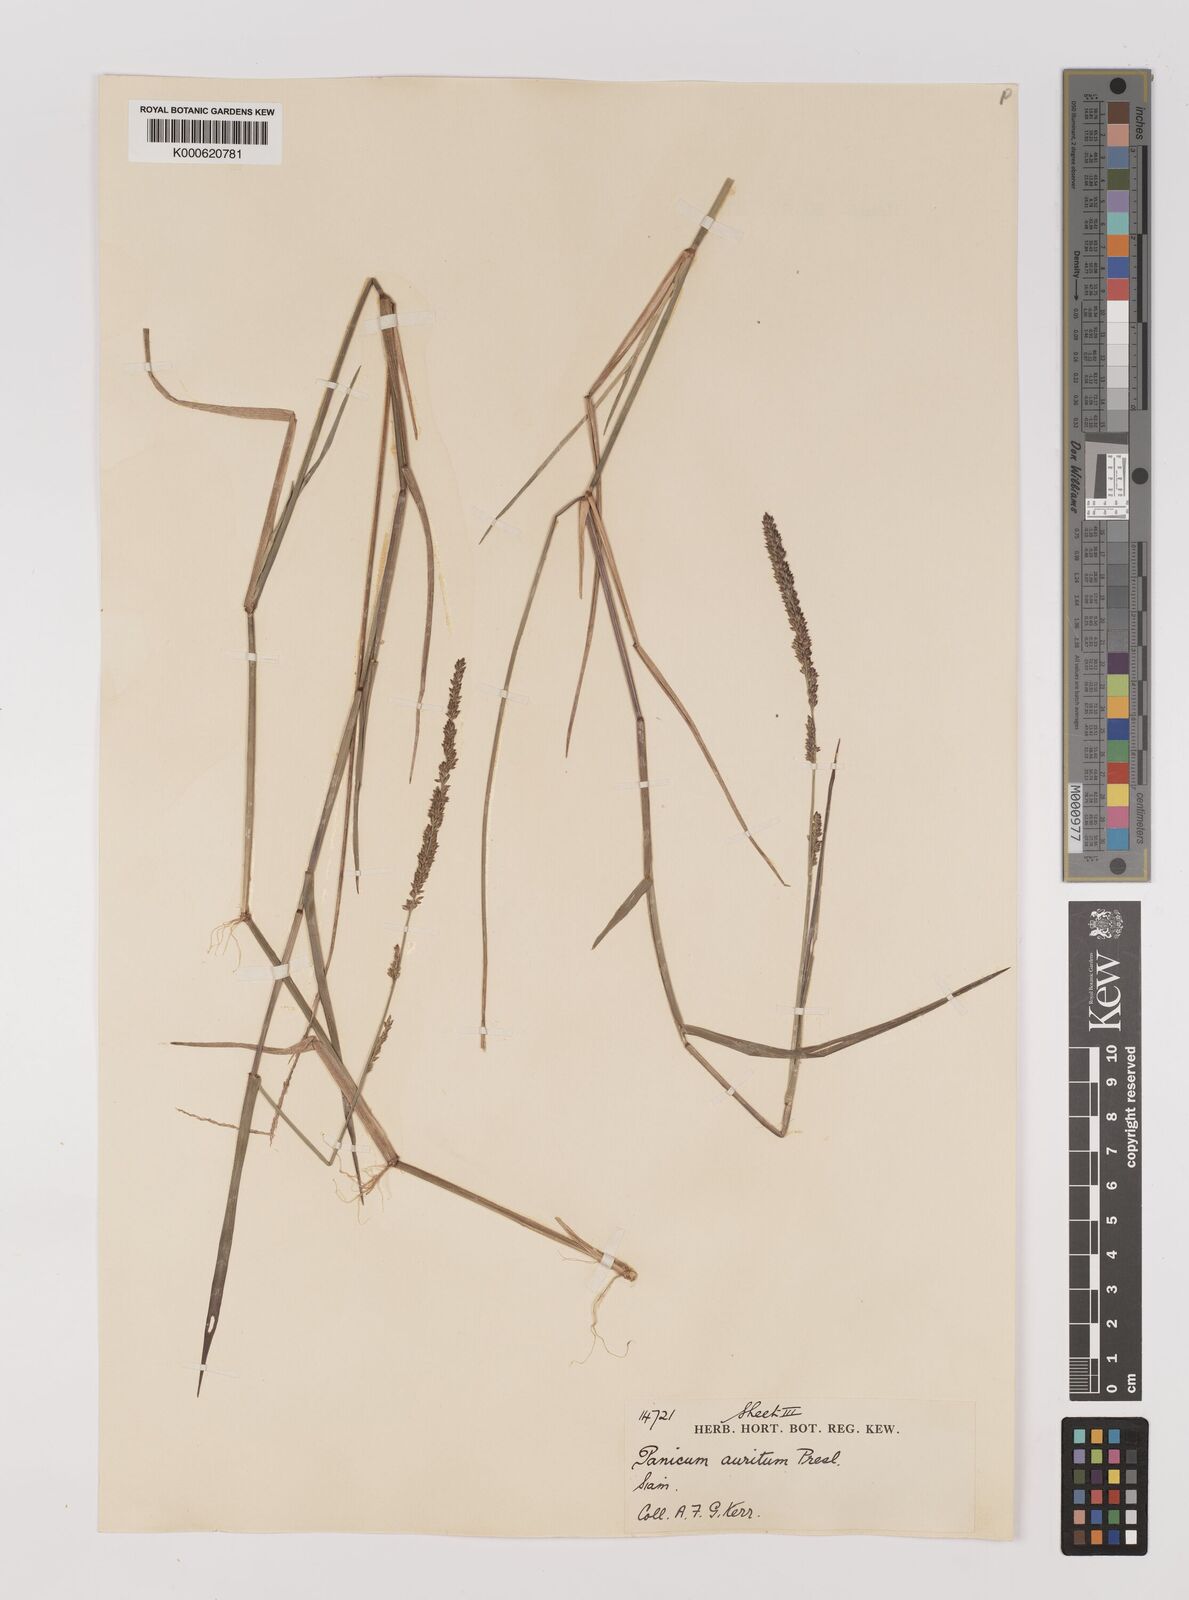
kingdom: Plantae
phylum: Tracheophyta
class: Liliopsida
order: Poales
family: Poaceae
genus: Hymenachne
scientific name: Hymenachne aurita
